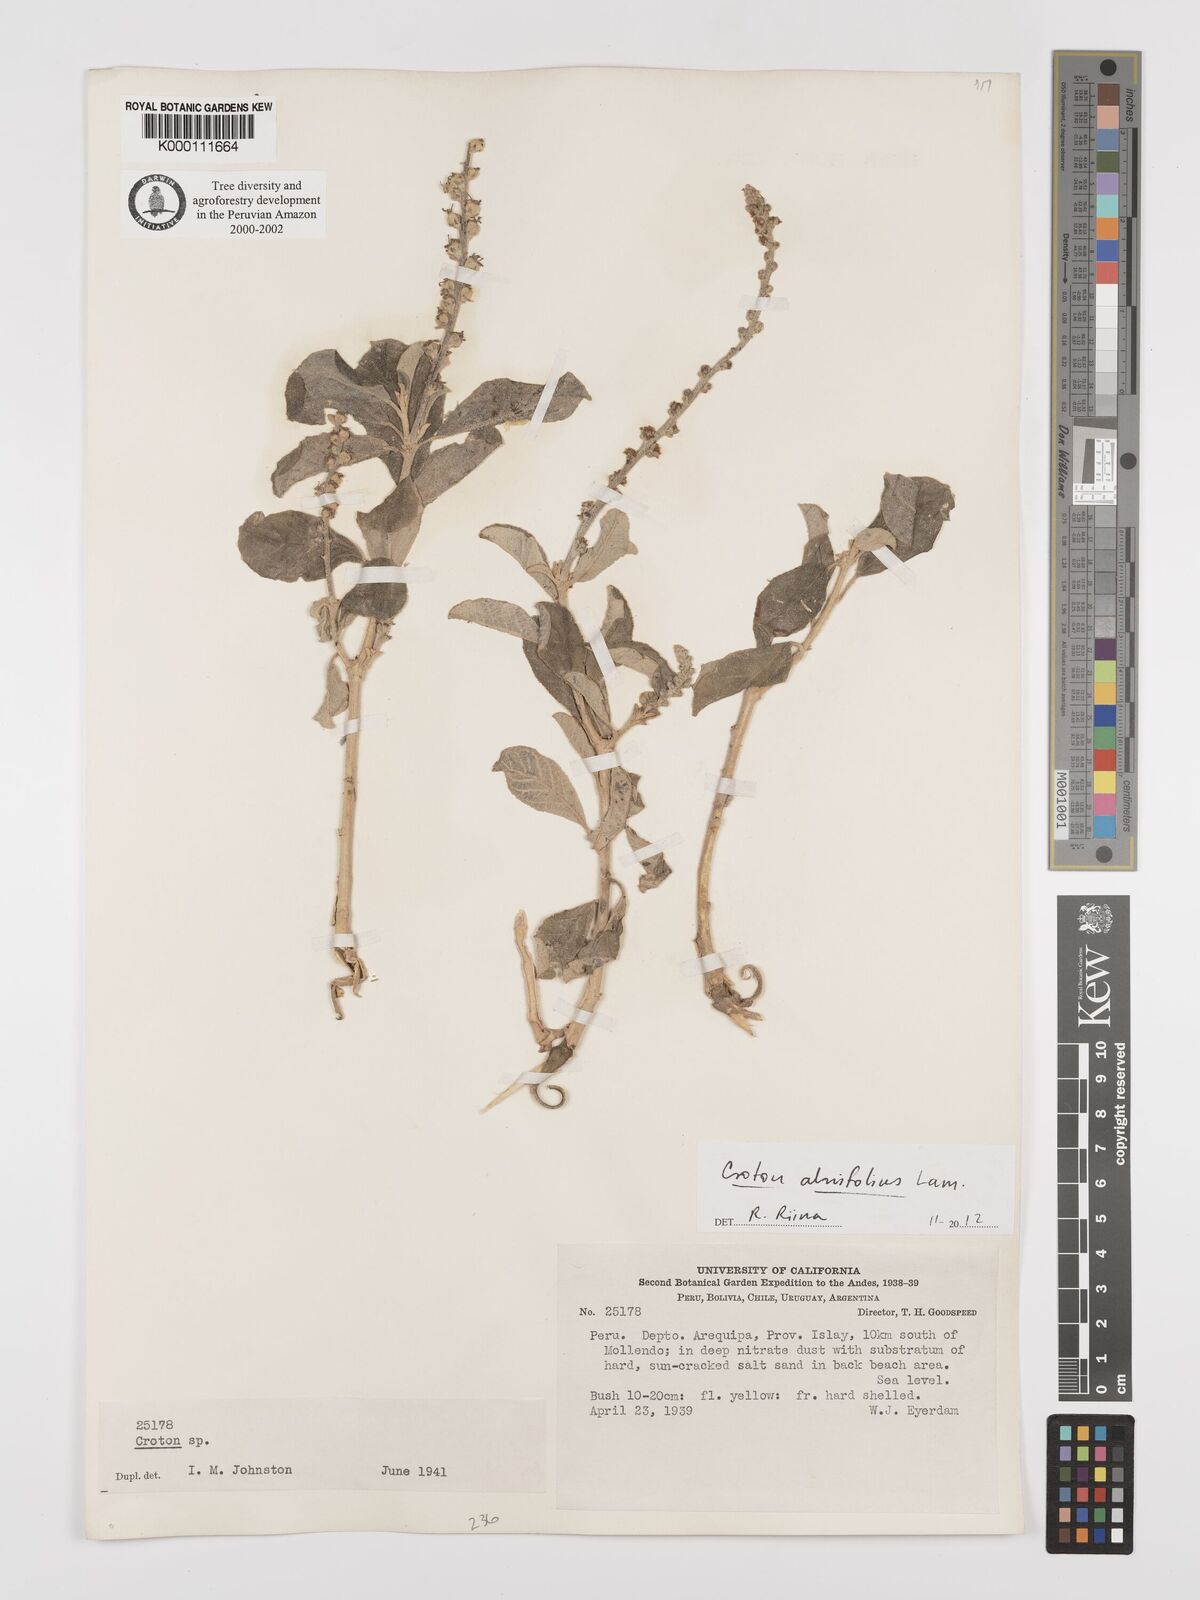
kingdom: Plantae
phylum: Tracheophyta
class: Magnoliopsida
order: Malpighiales
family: Euphorbiaceae
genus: Croton
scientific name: Croton alnifolius
